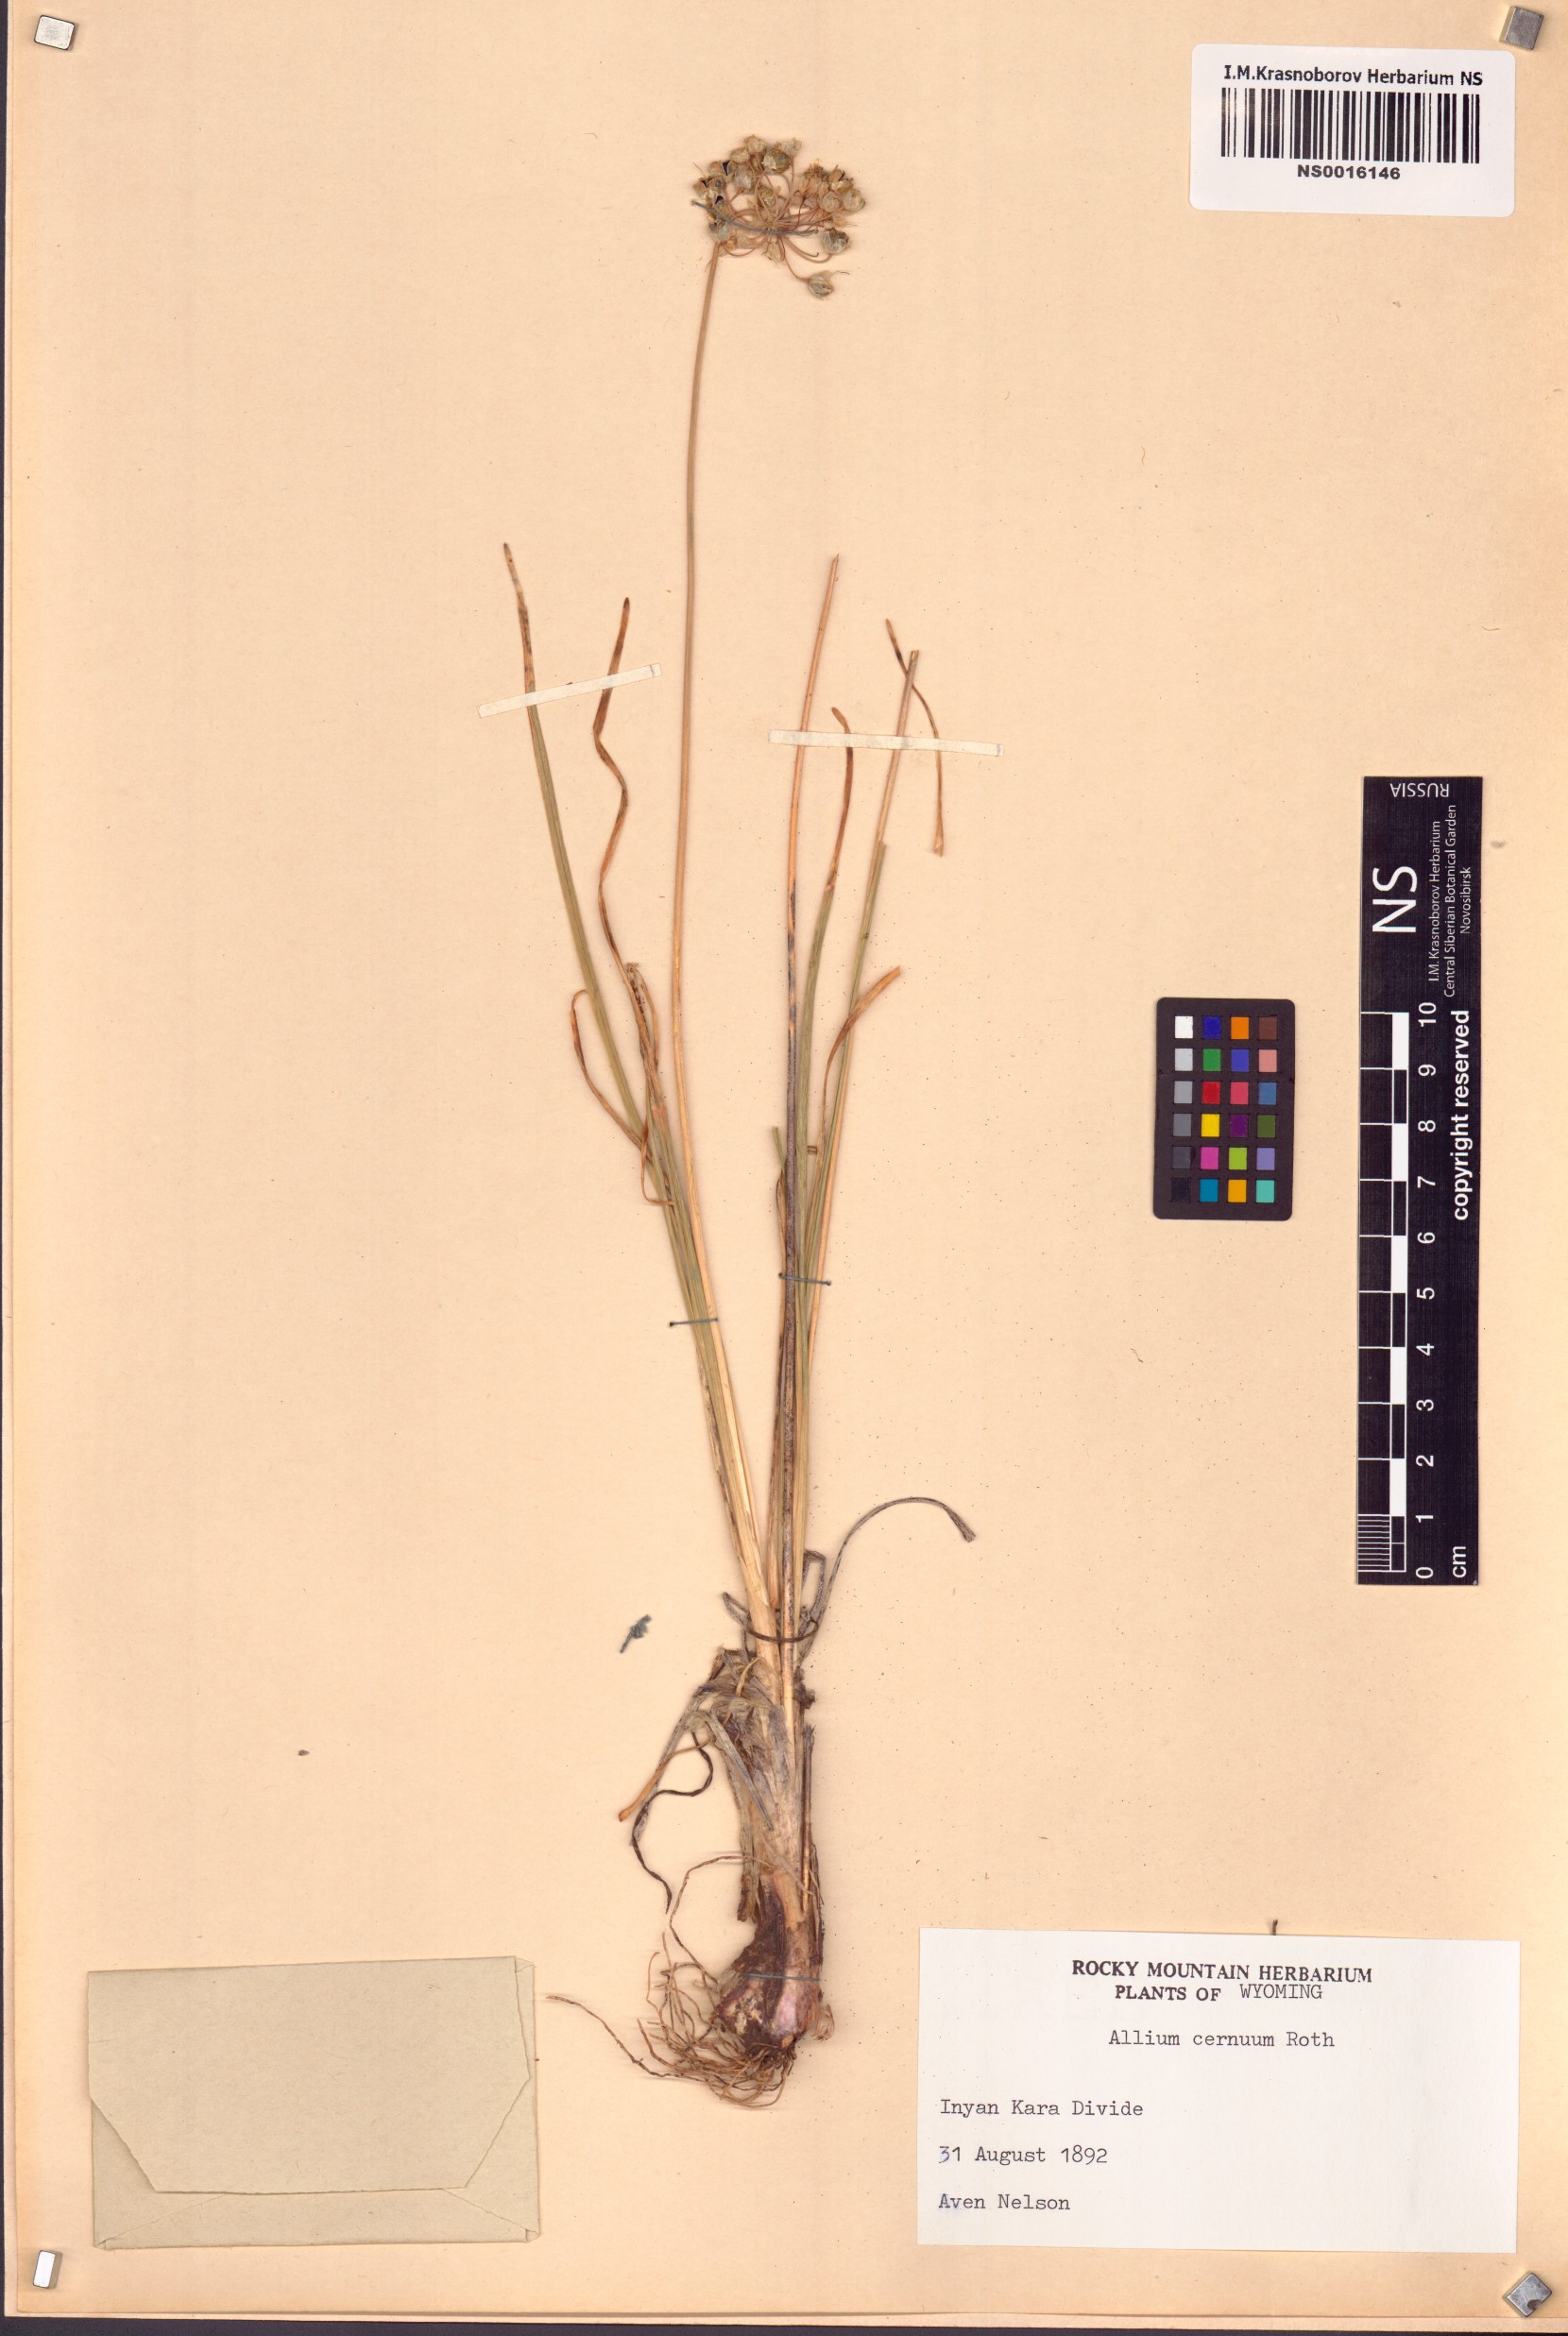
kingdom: Plantae
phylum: Tracheophyta
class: Liliopsida
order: Asparagales
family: Amaryllidaceae
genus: Allium
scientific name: Allium cernuum
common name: Nodding onion
